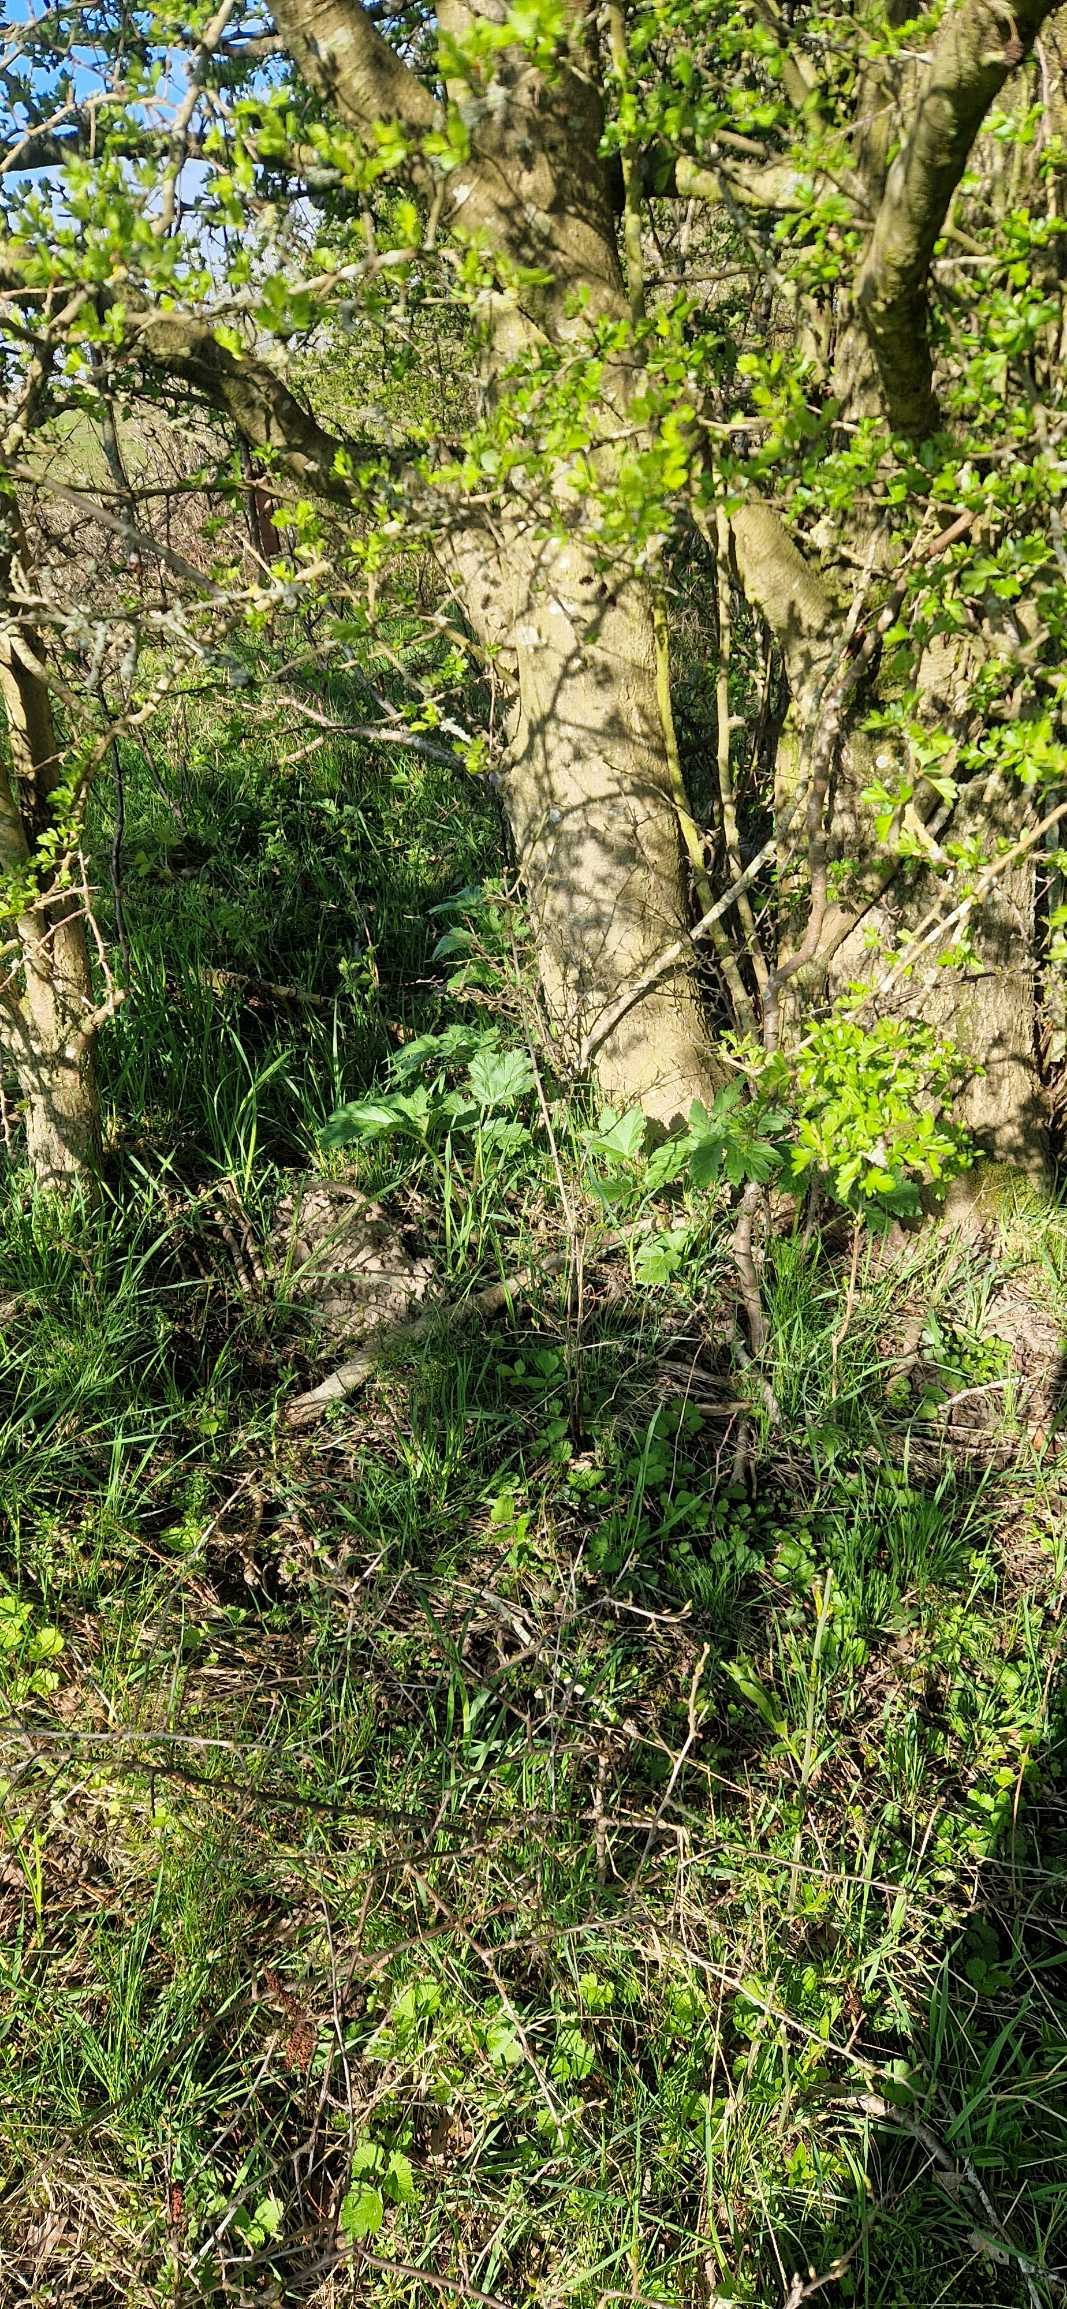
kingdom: Plantae
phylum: Tracheophyta
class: Magnoliopsida
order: Apiales
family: Apiaceae
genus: Heracleum
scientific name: Heracleum mantegazzianum
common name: Kæmpe-bjørneklo
